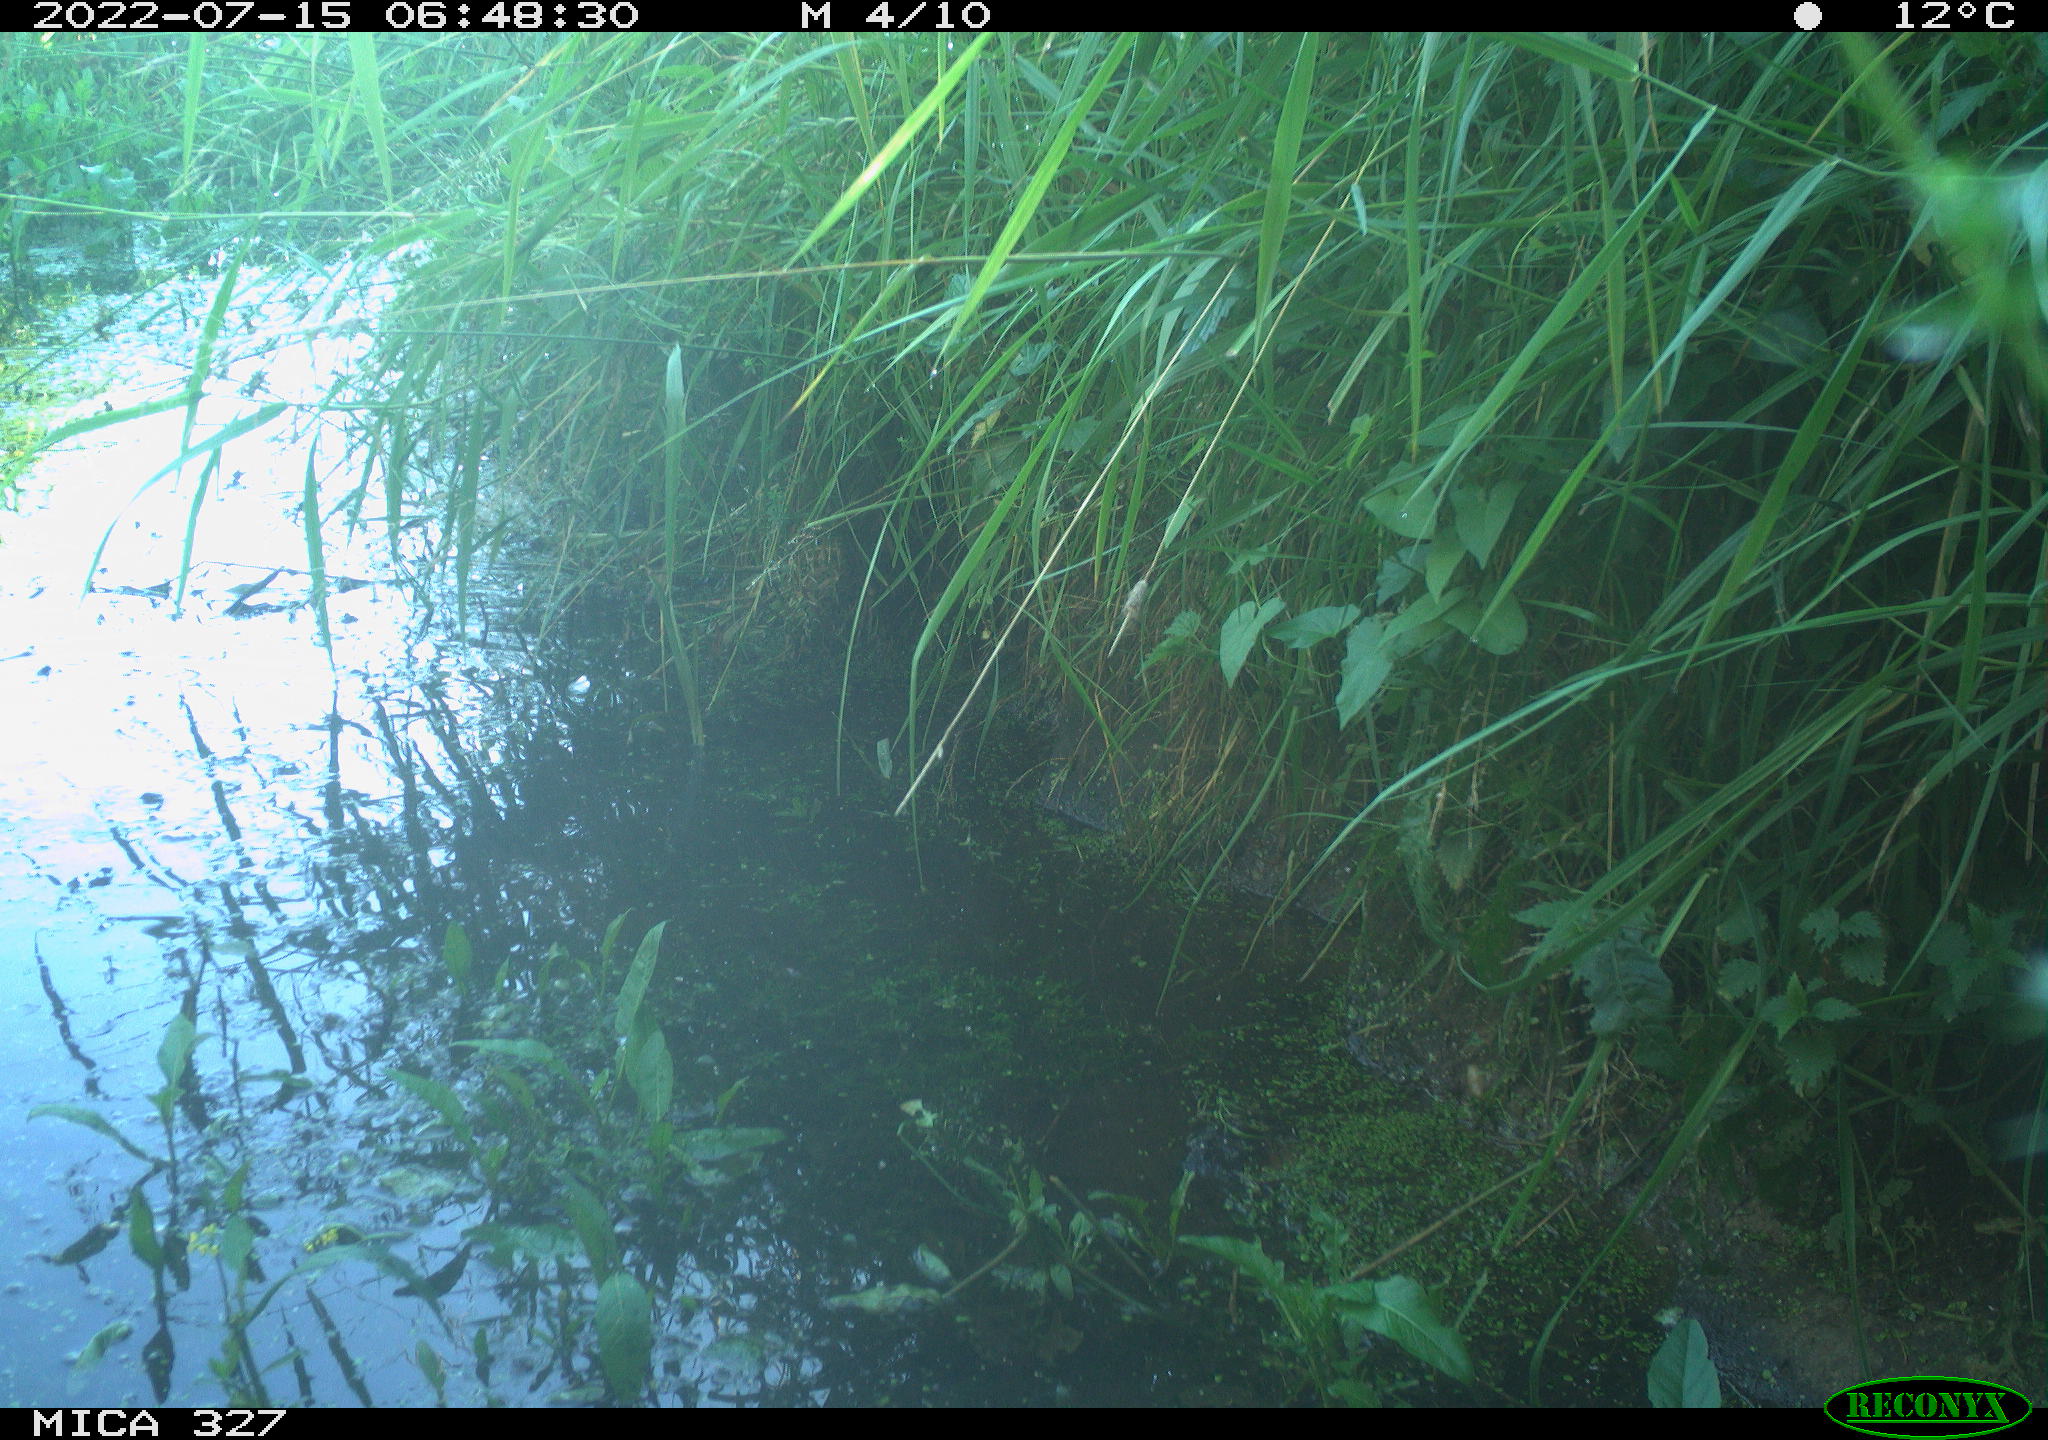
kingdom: Animalia
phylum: Chordata
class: Aves
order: Anseriformes
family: Anatidae
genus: Anas
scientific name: Anas
